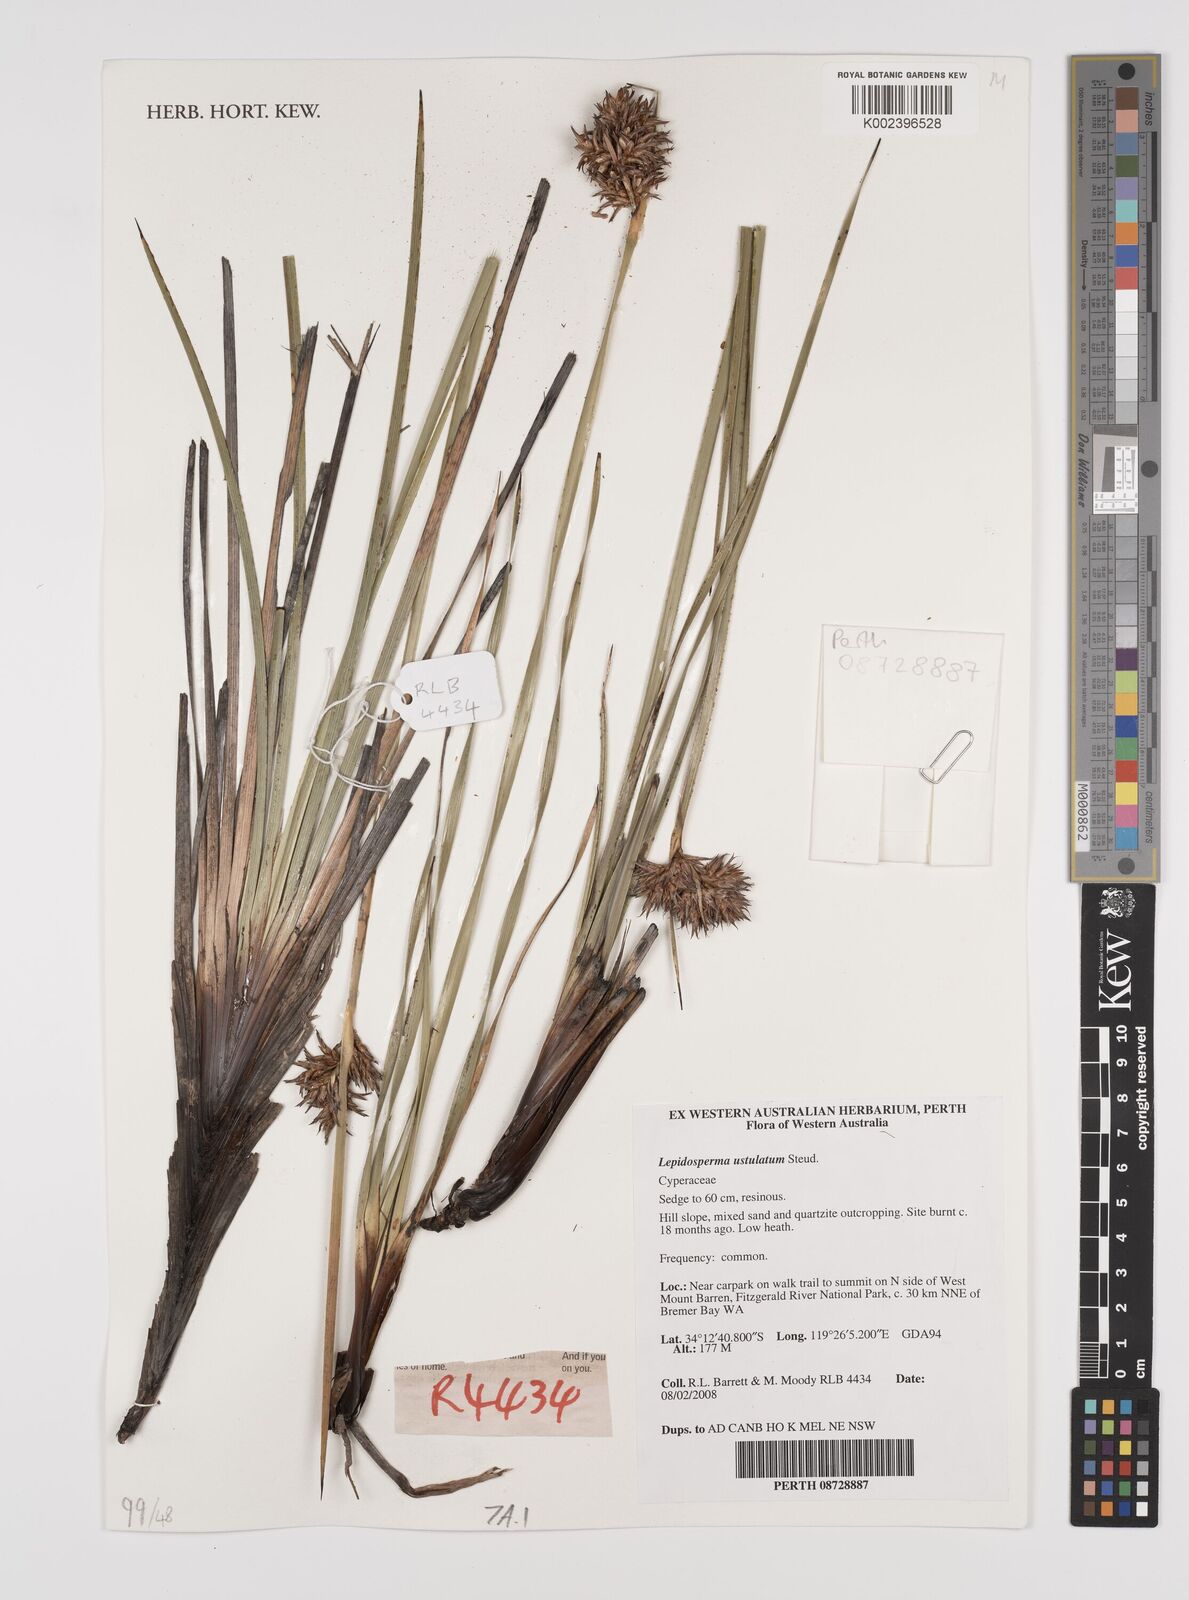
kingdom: Plantae
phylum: Tracheophyta
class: Liliopsida
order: Poales
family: Cyperaceae
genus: Lepidosperma
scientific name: Lepidosperma ustulatum
